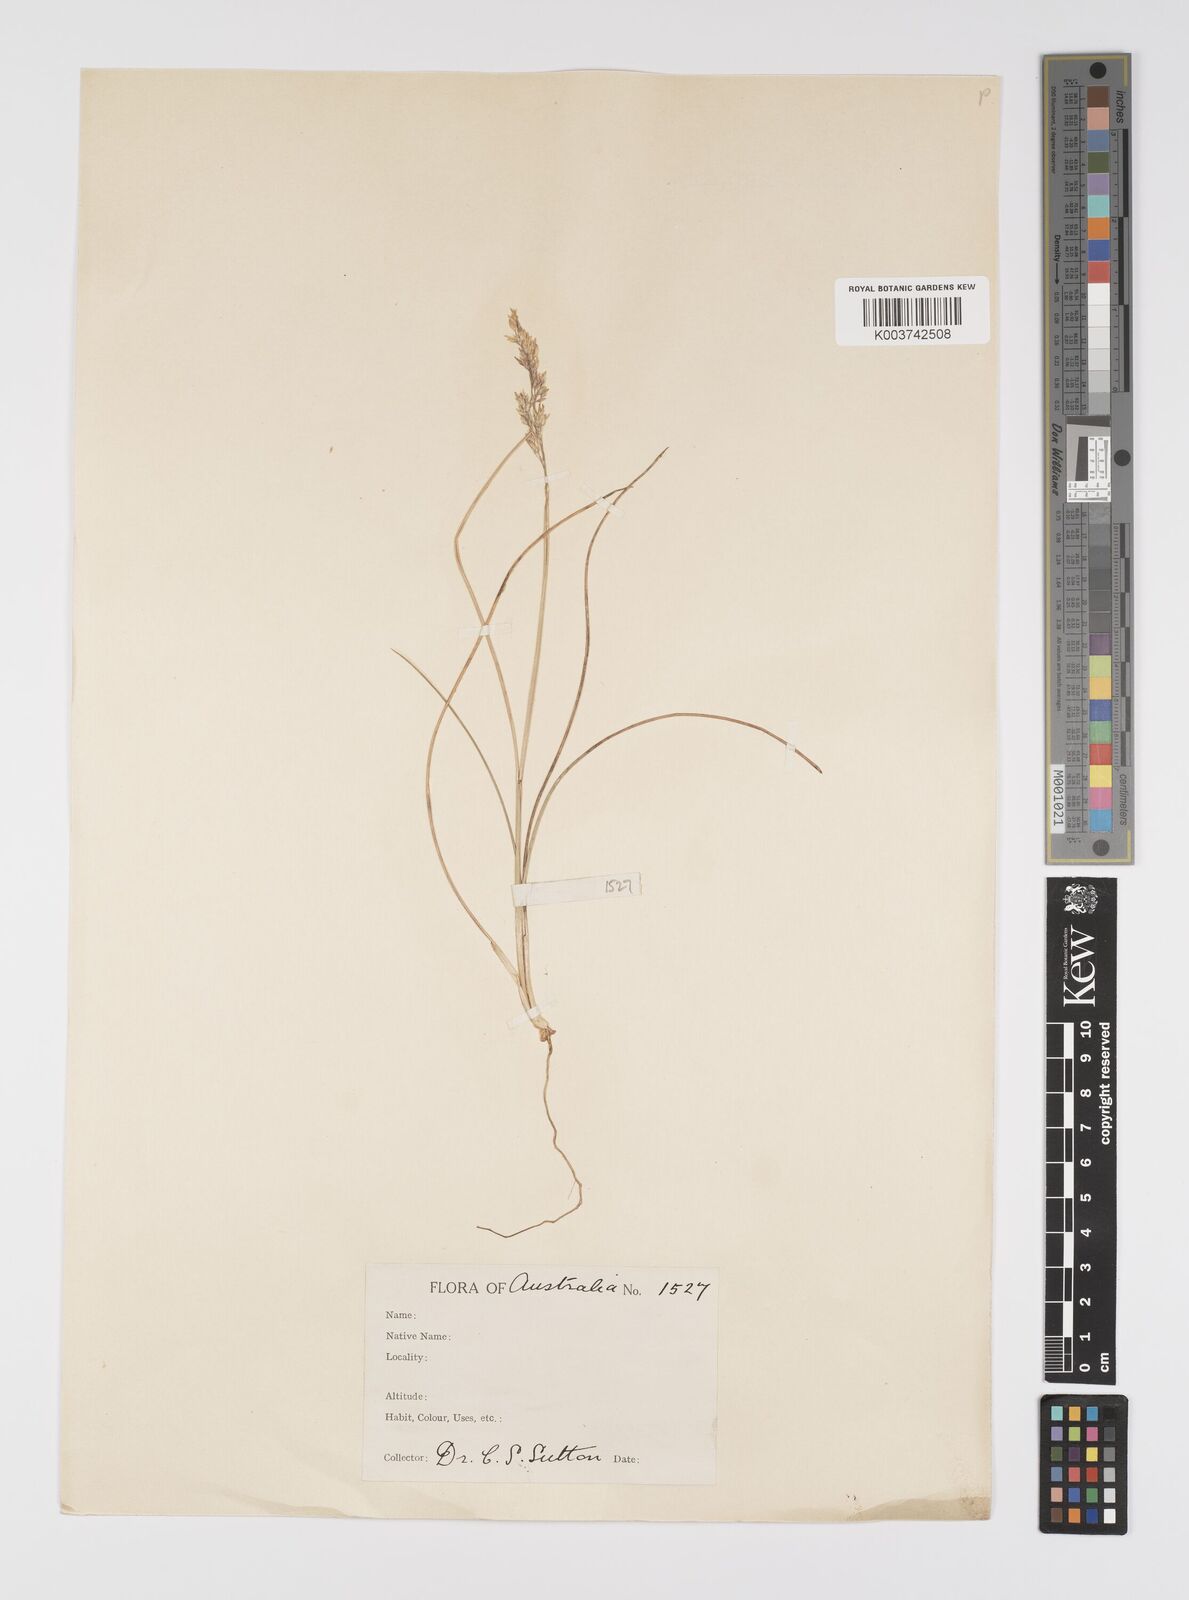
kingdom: Plantae
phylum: Tracheophyta
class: Liliopsida
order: Poales
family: Poaceae
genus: Poa
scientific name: Poa
